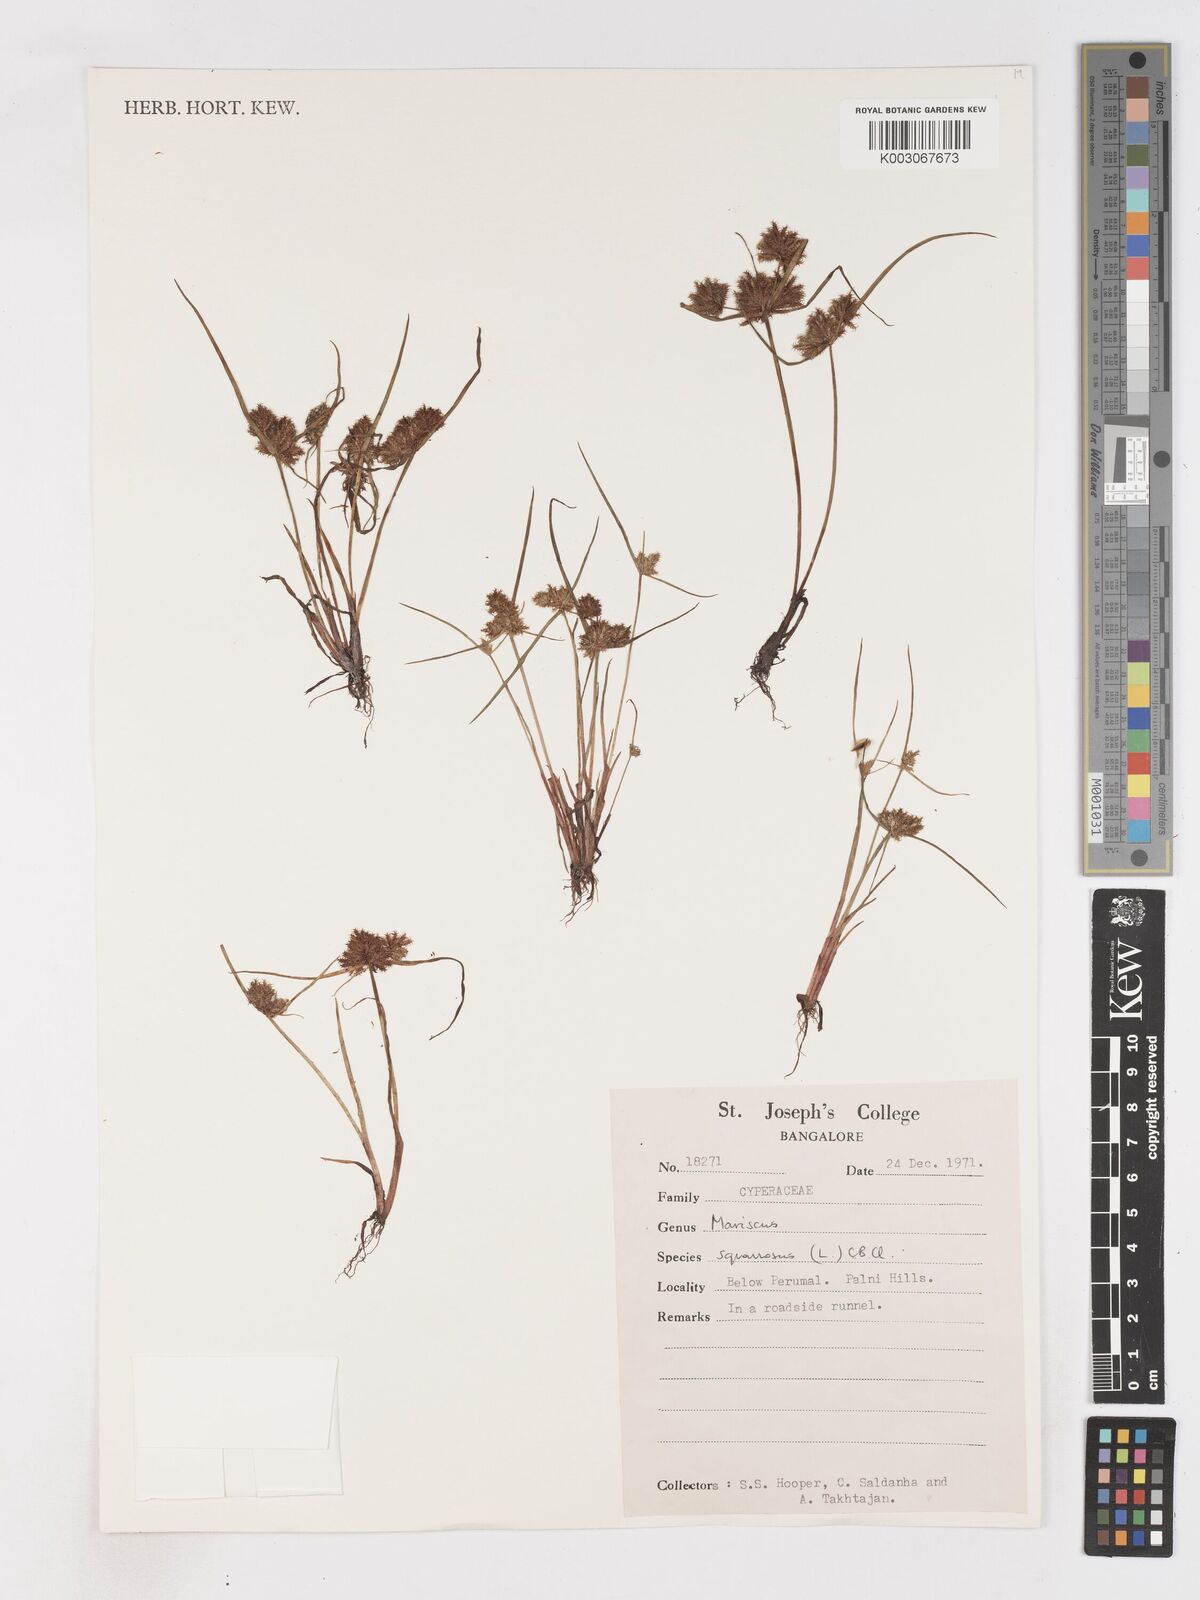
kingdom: Plantae
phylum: Tracheophyta
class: Liliopsida
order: Poales
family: Cyperaceae
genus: Cyperus
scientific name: Cyperus squarrosus
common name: Awned cyperus
